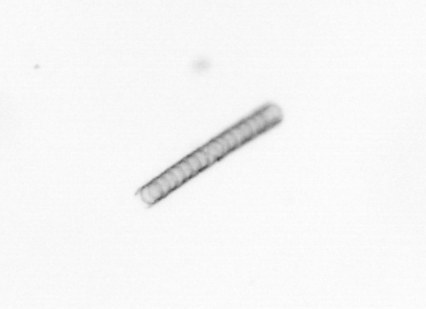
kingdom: Chromista
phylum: Ochrophyta
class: Bacillariophyceae
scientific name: Bacillariophyceae
